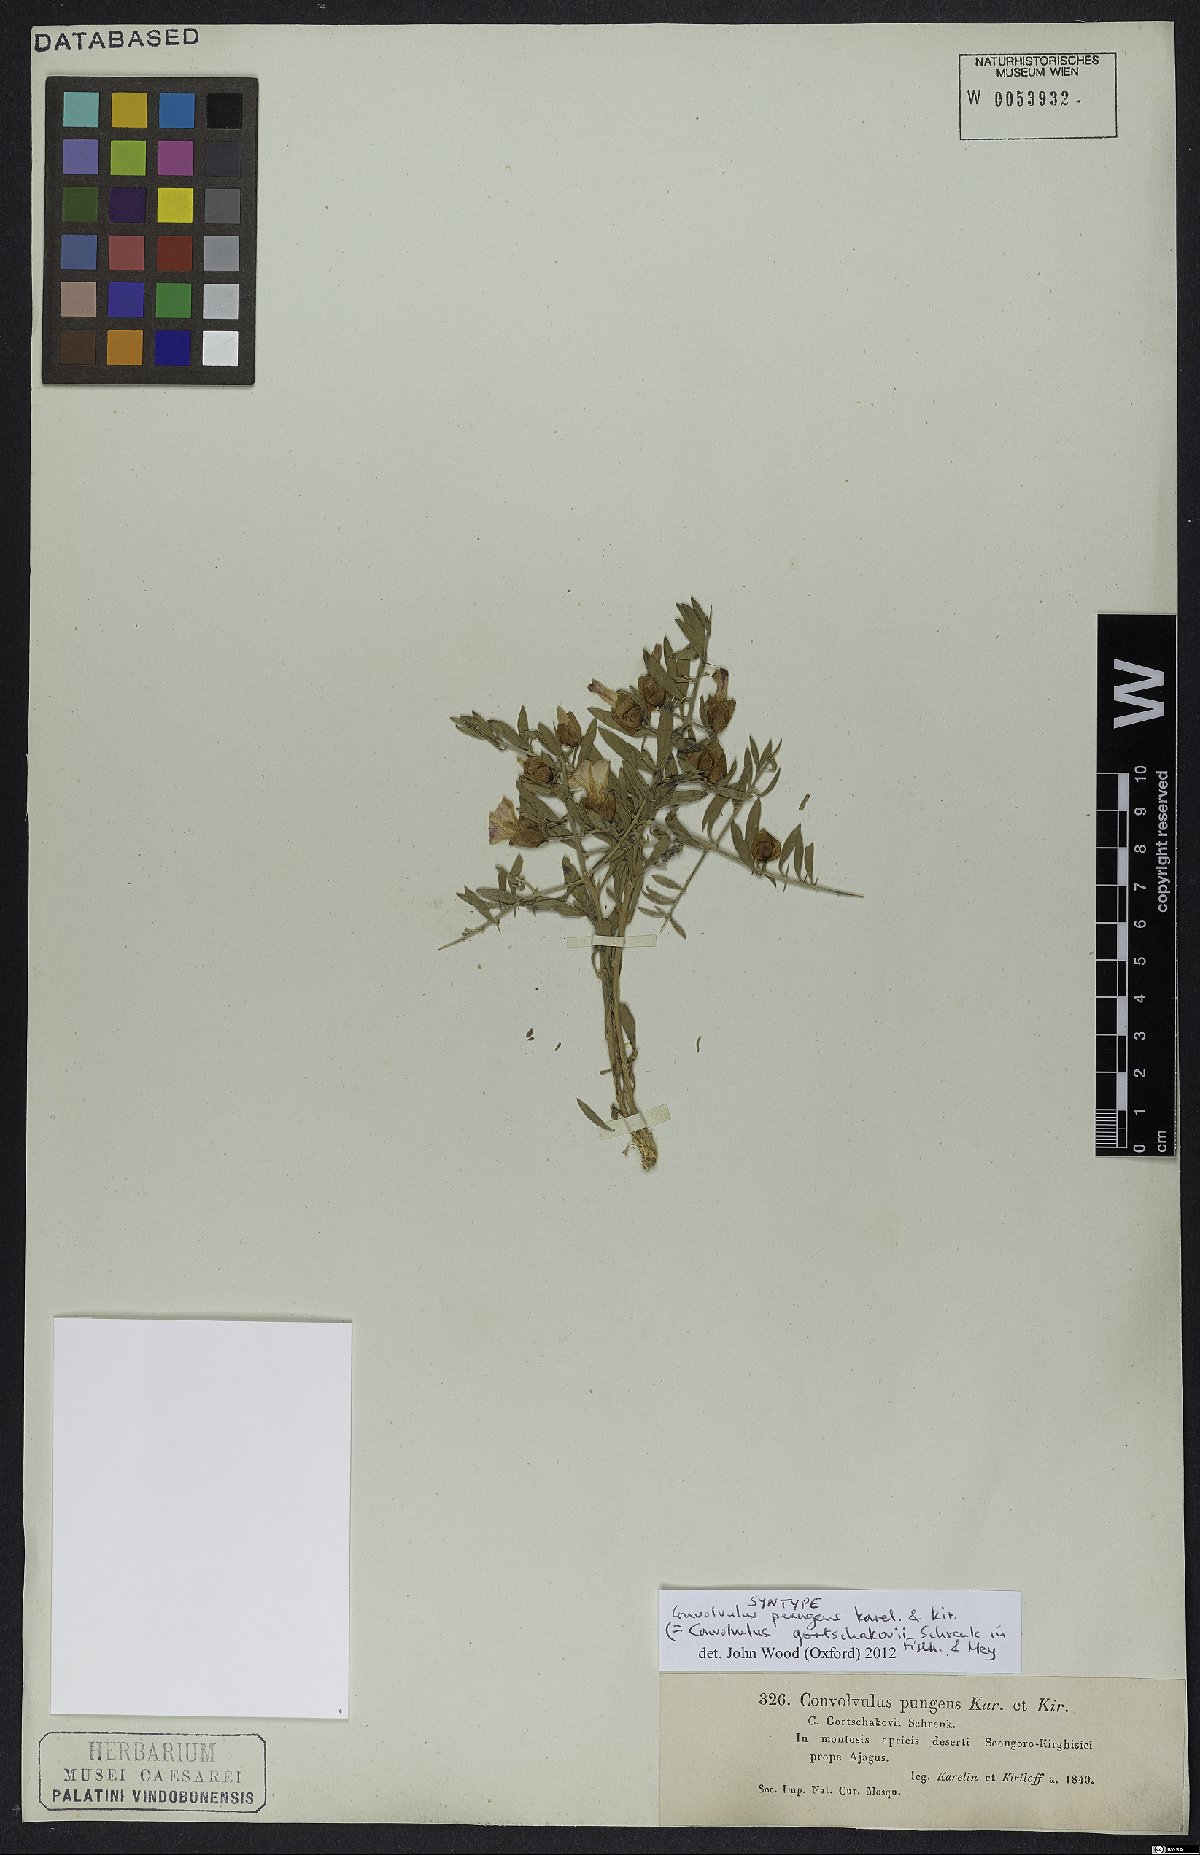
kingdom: Plantae
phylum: Tracheophyta
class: Magnoliopsida
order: Solanales
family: Convolvulaceae
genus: Convolvulus
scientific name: Convolvulus gortschakovii
